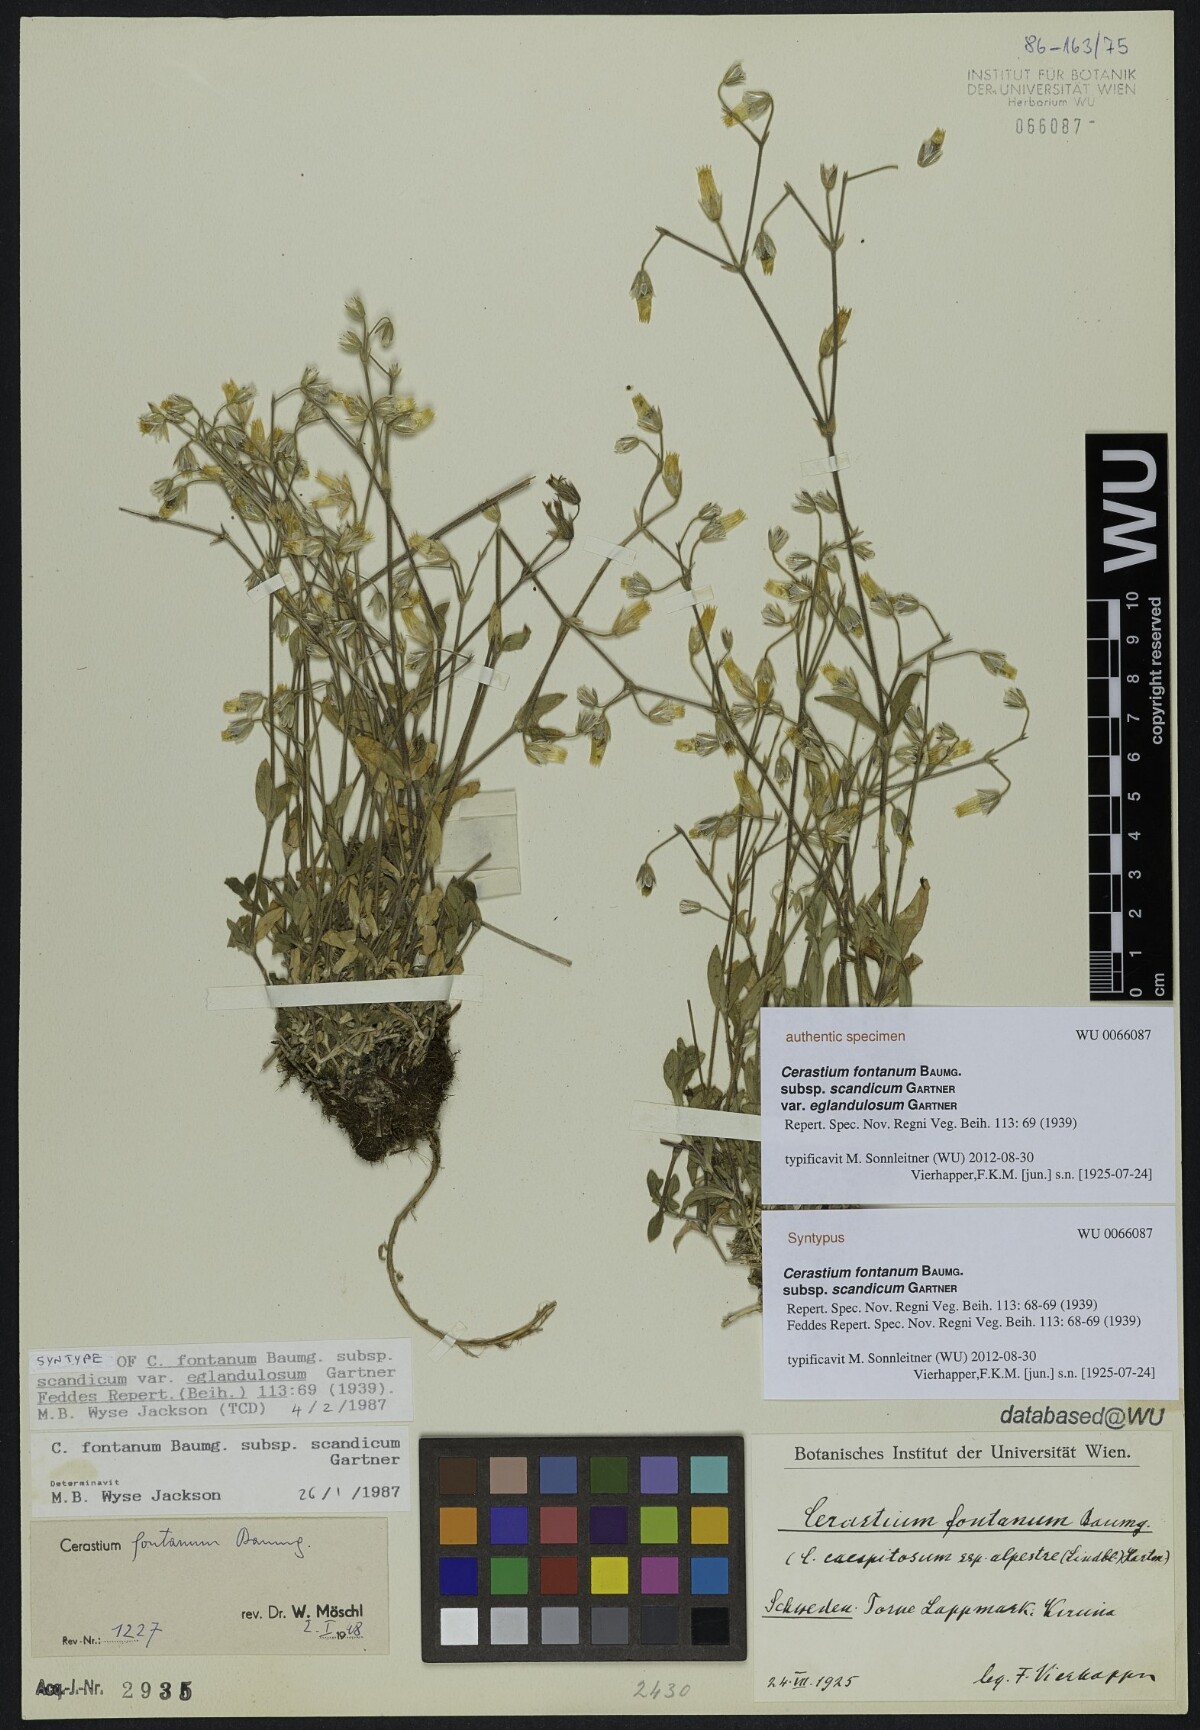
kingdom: Plantae
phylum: Tracheophyta
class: Magnoliopsida
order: Caryophyllales
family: Caryophyllaceae
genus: Cerastium
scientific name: Cerastium holosteoides
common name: Big chickweed
